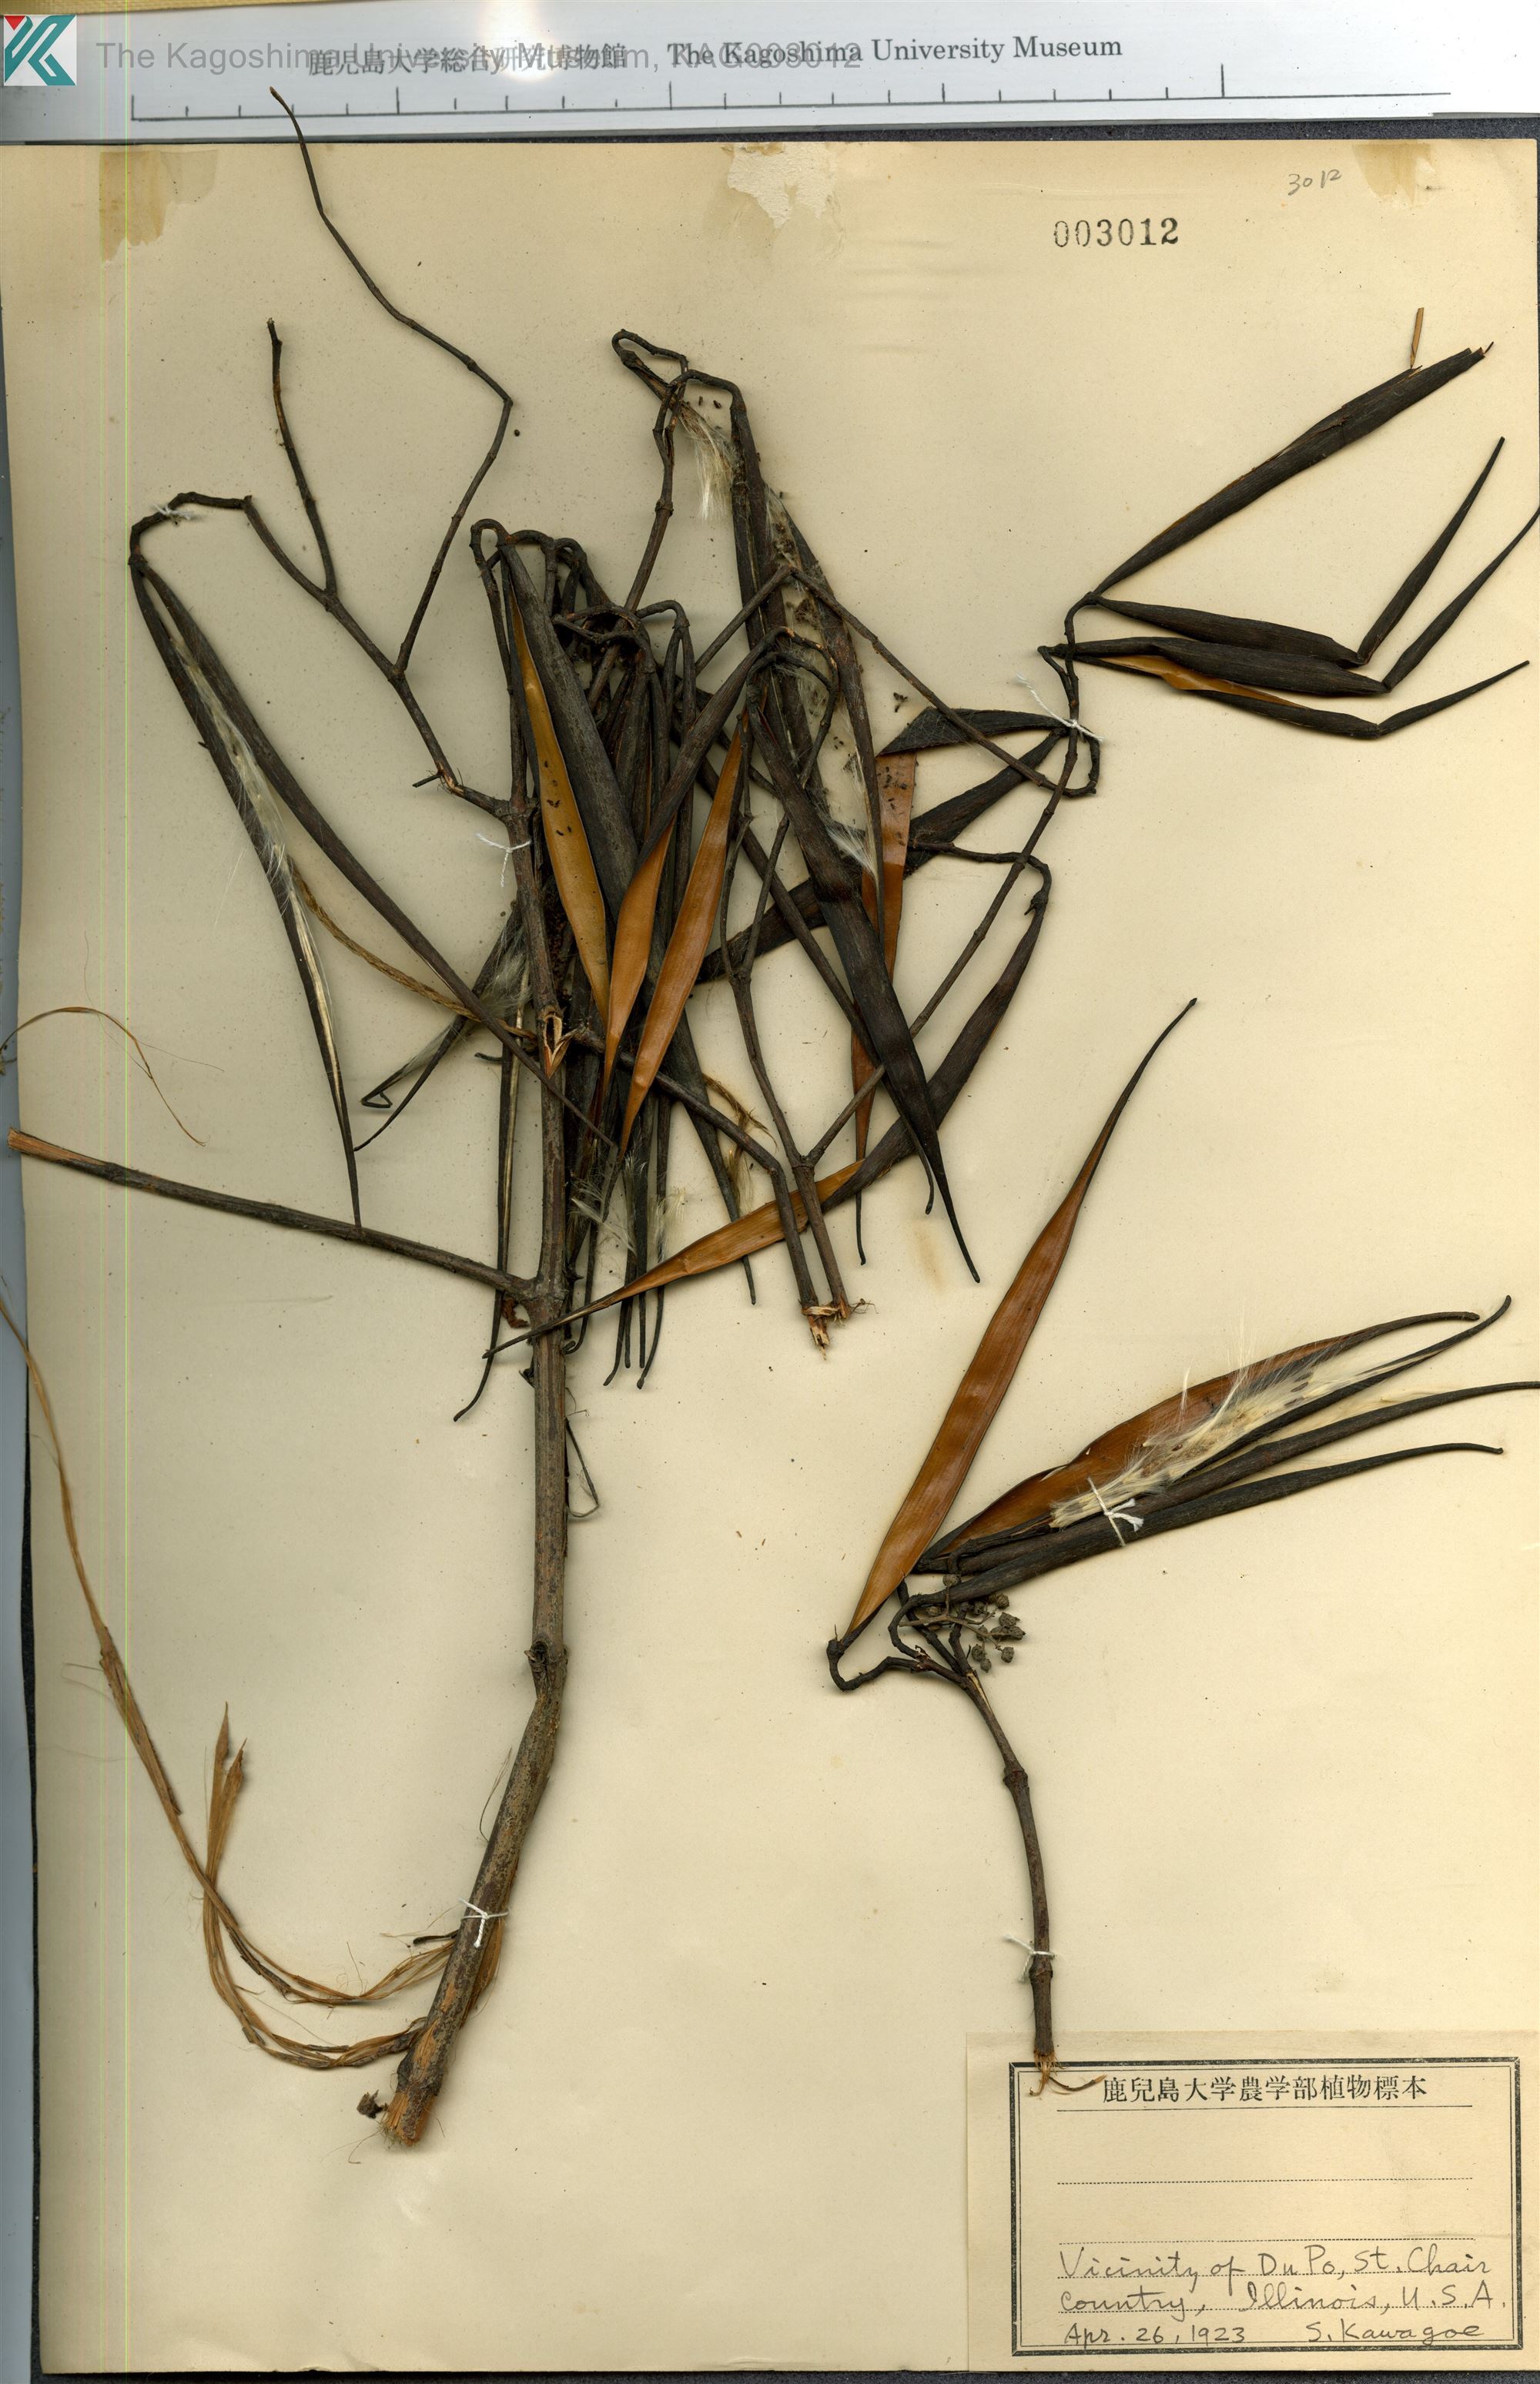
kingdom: Plantae
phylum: Tracheophyta
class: Magnoliopsida
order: Gentianales
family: Apocynaceae
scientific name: Apocynaceae
